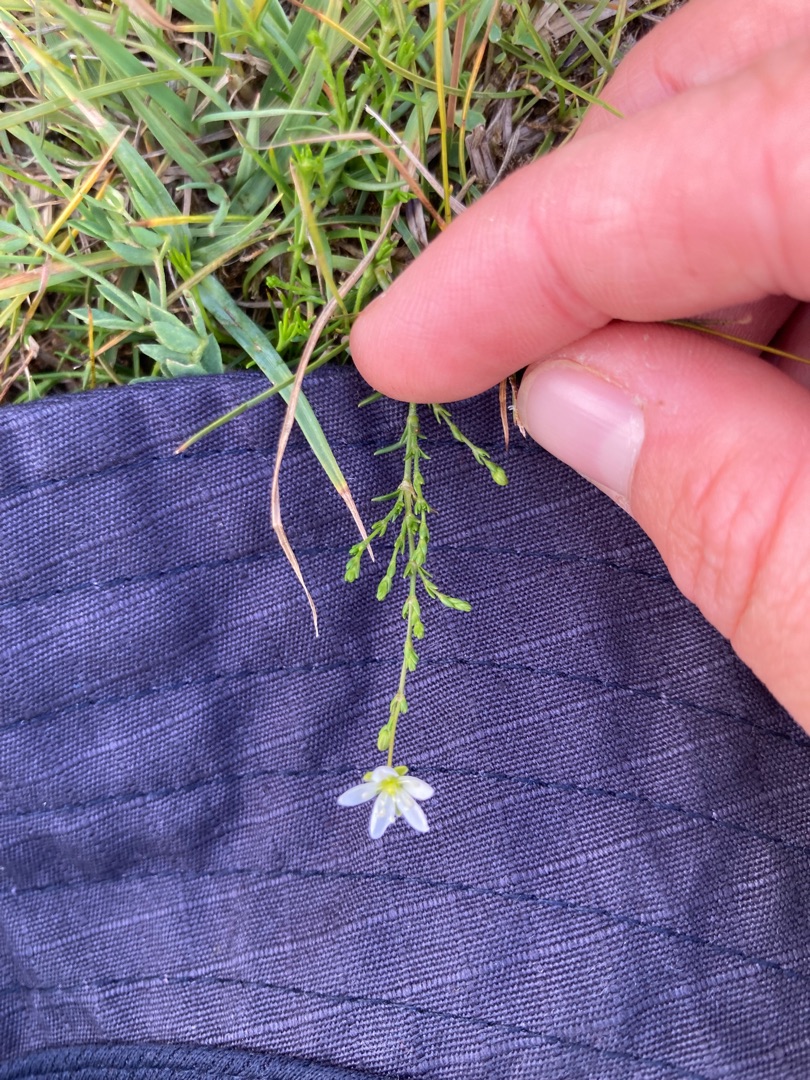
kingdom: Plantae
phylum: Tracheophyta
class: Magnoliopsida
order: Caryophyllales
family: Caryophyllaceae
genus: Sagina
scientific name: Sagina nodosa
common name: Knude-firling
